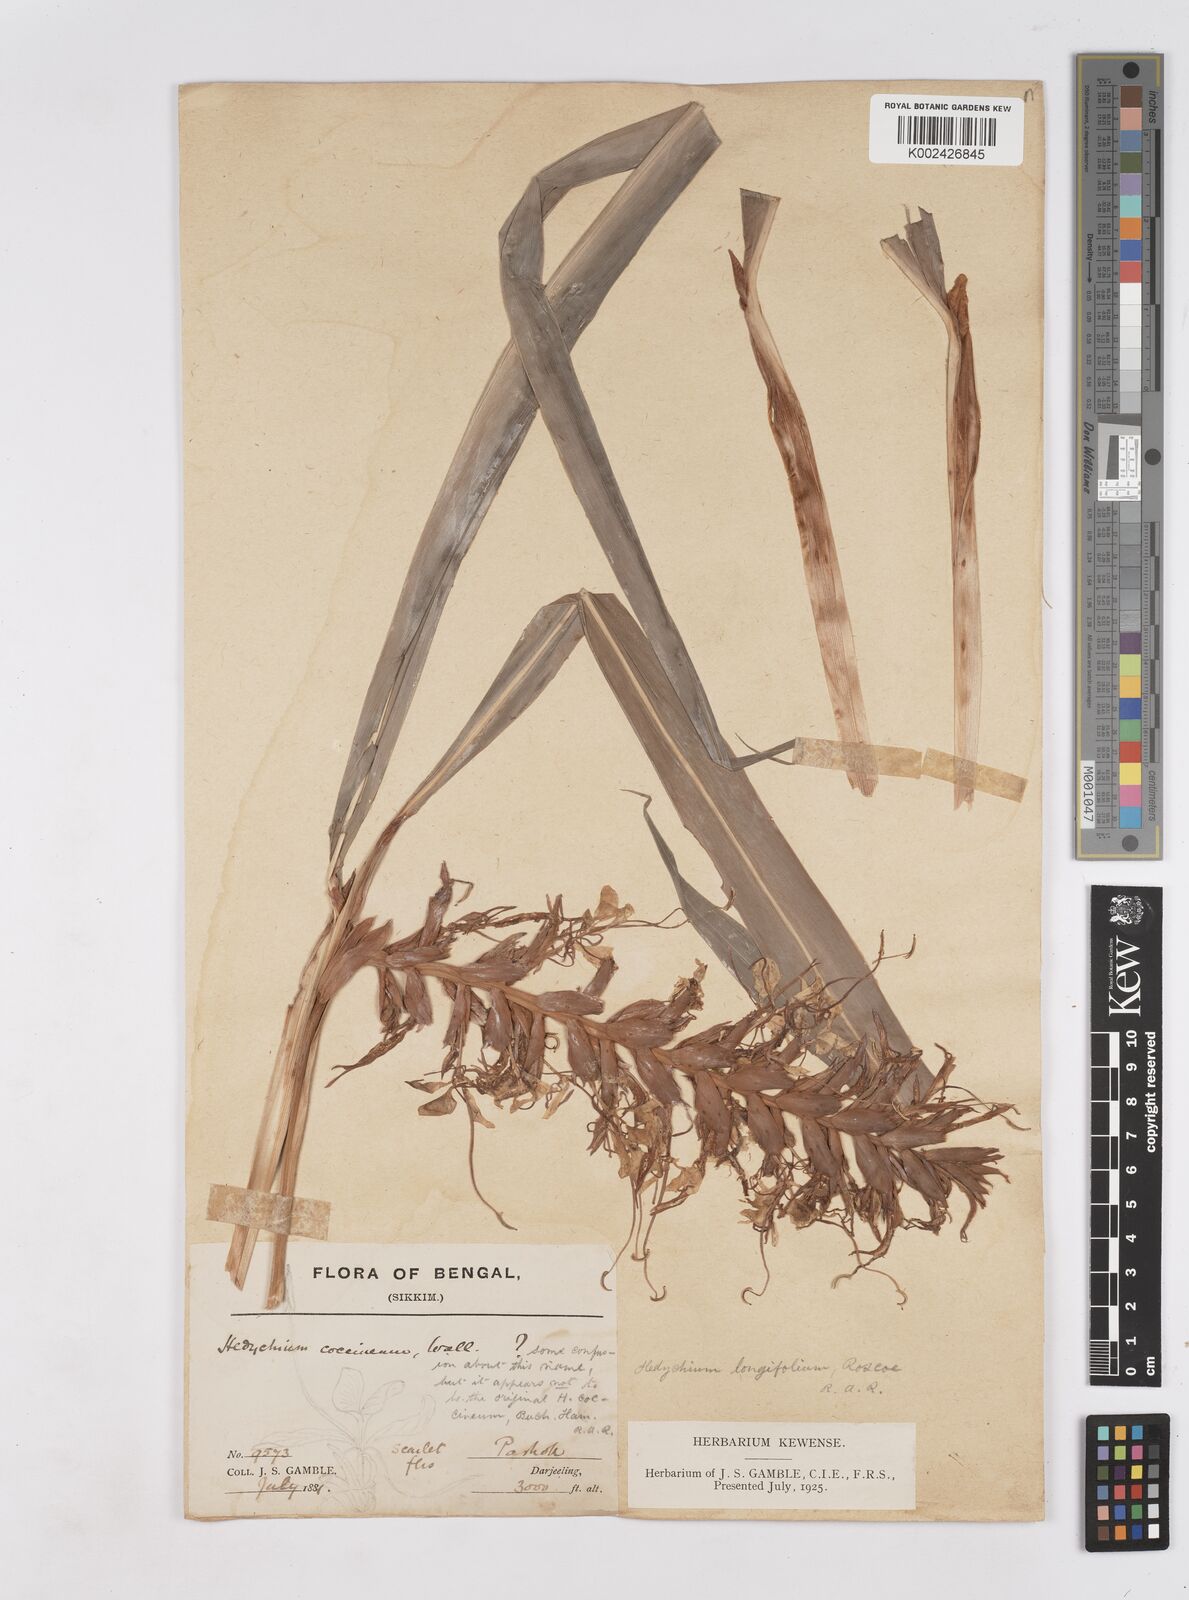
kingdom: Plantae
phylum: Tracheophyta
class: Liliopsida
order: Zingiberales
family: Zingiberaceae
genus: Hedychium
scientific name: Hedychium coccineum
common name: Red ginger-lily
